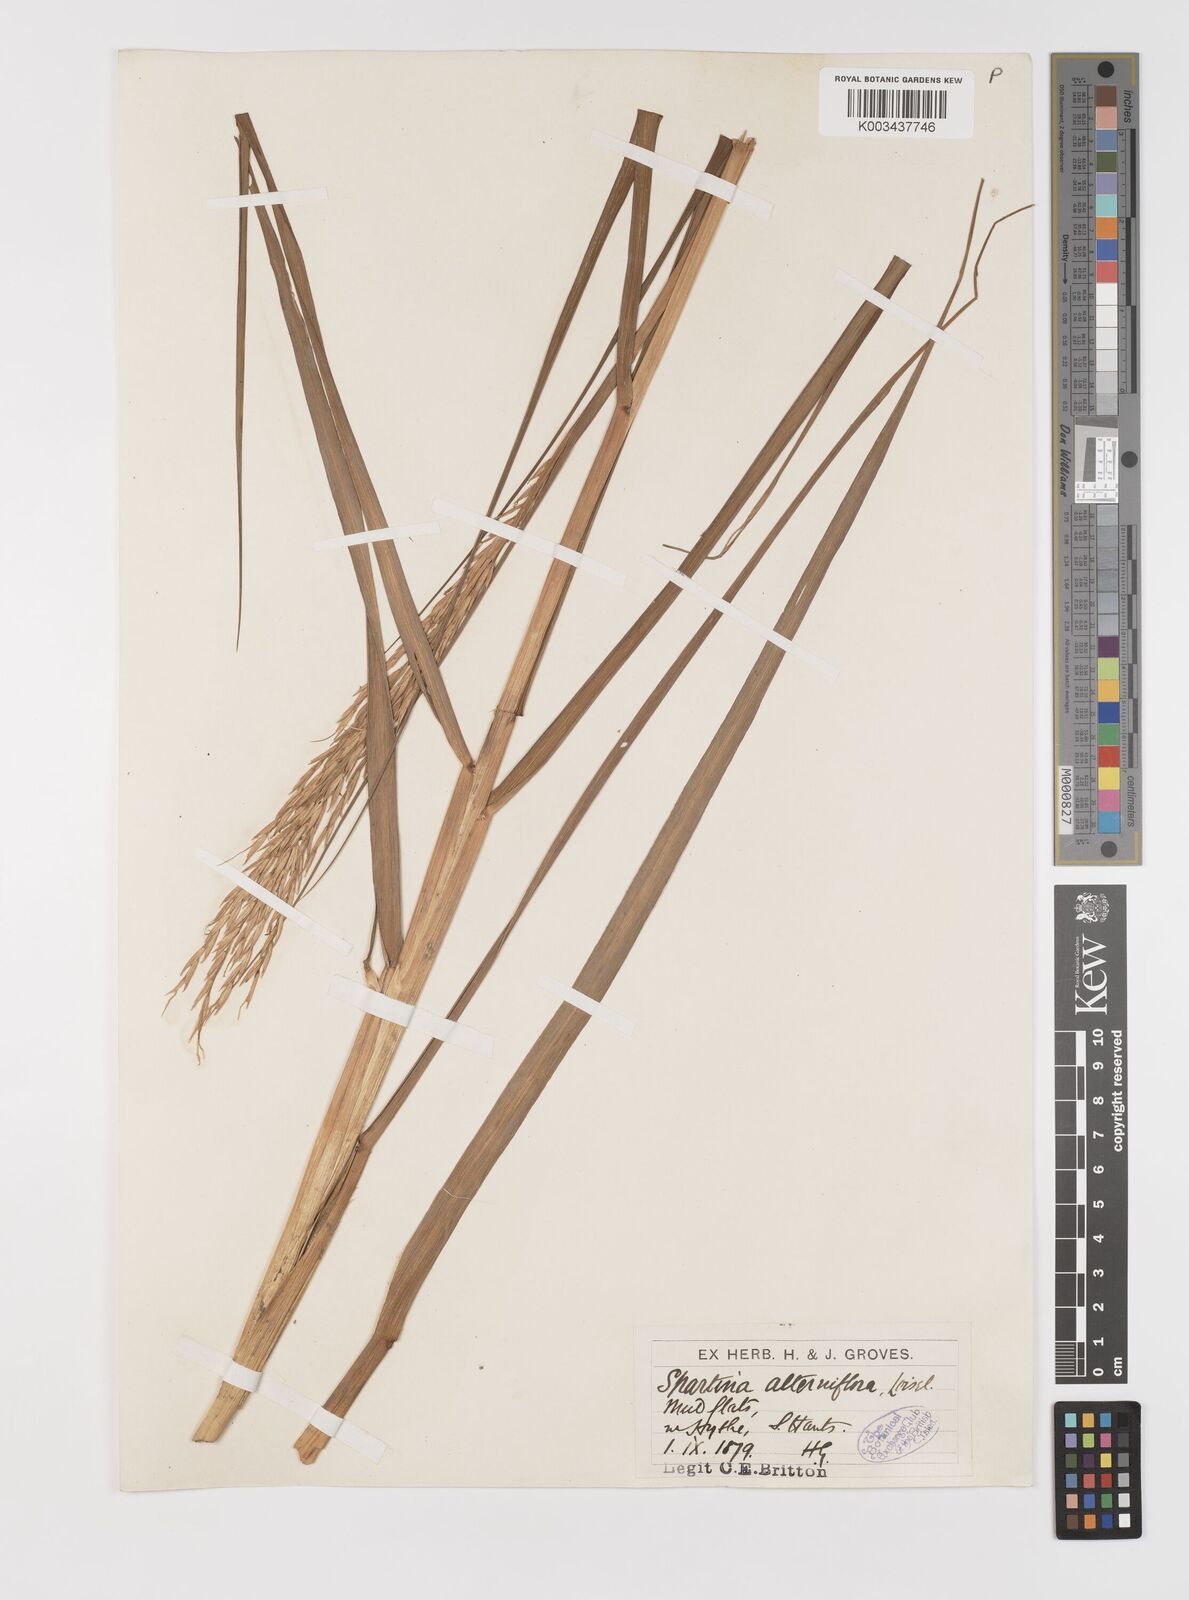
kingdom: Plantae
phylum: Tracheophyta
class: Liliopsida
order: Poales
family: Poaceae
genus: Sporobolus
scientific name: Sporobolus alterniflorus
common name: Atlantic cordgrass
